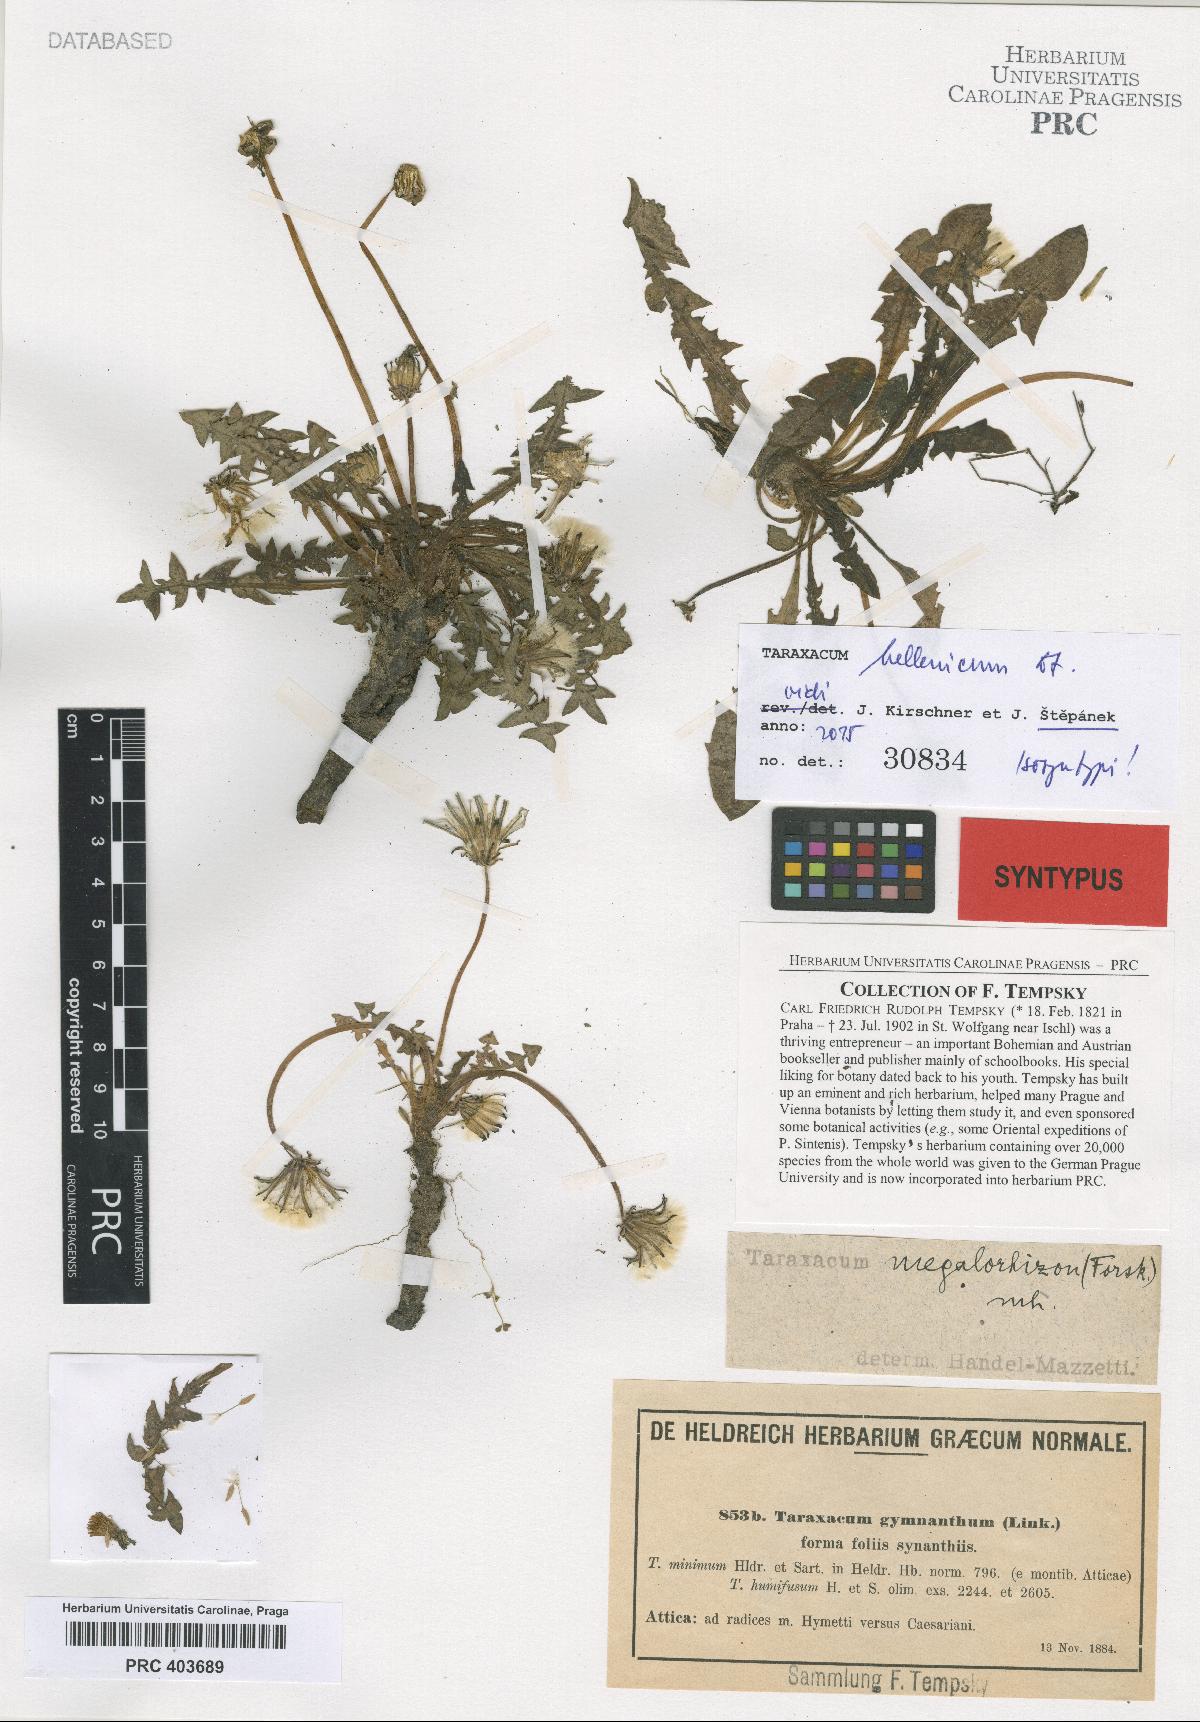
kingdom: Plantae
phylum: Tracheophyta
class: Magnoliopsida
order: Asterales
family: Asteraceae
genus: Taraxacum
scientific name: Taraxacum hellenicum
